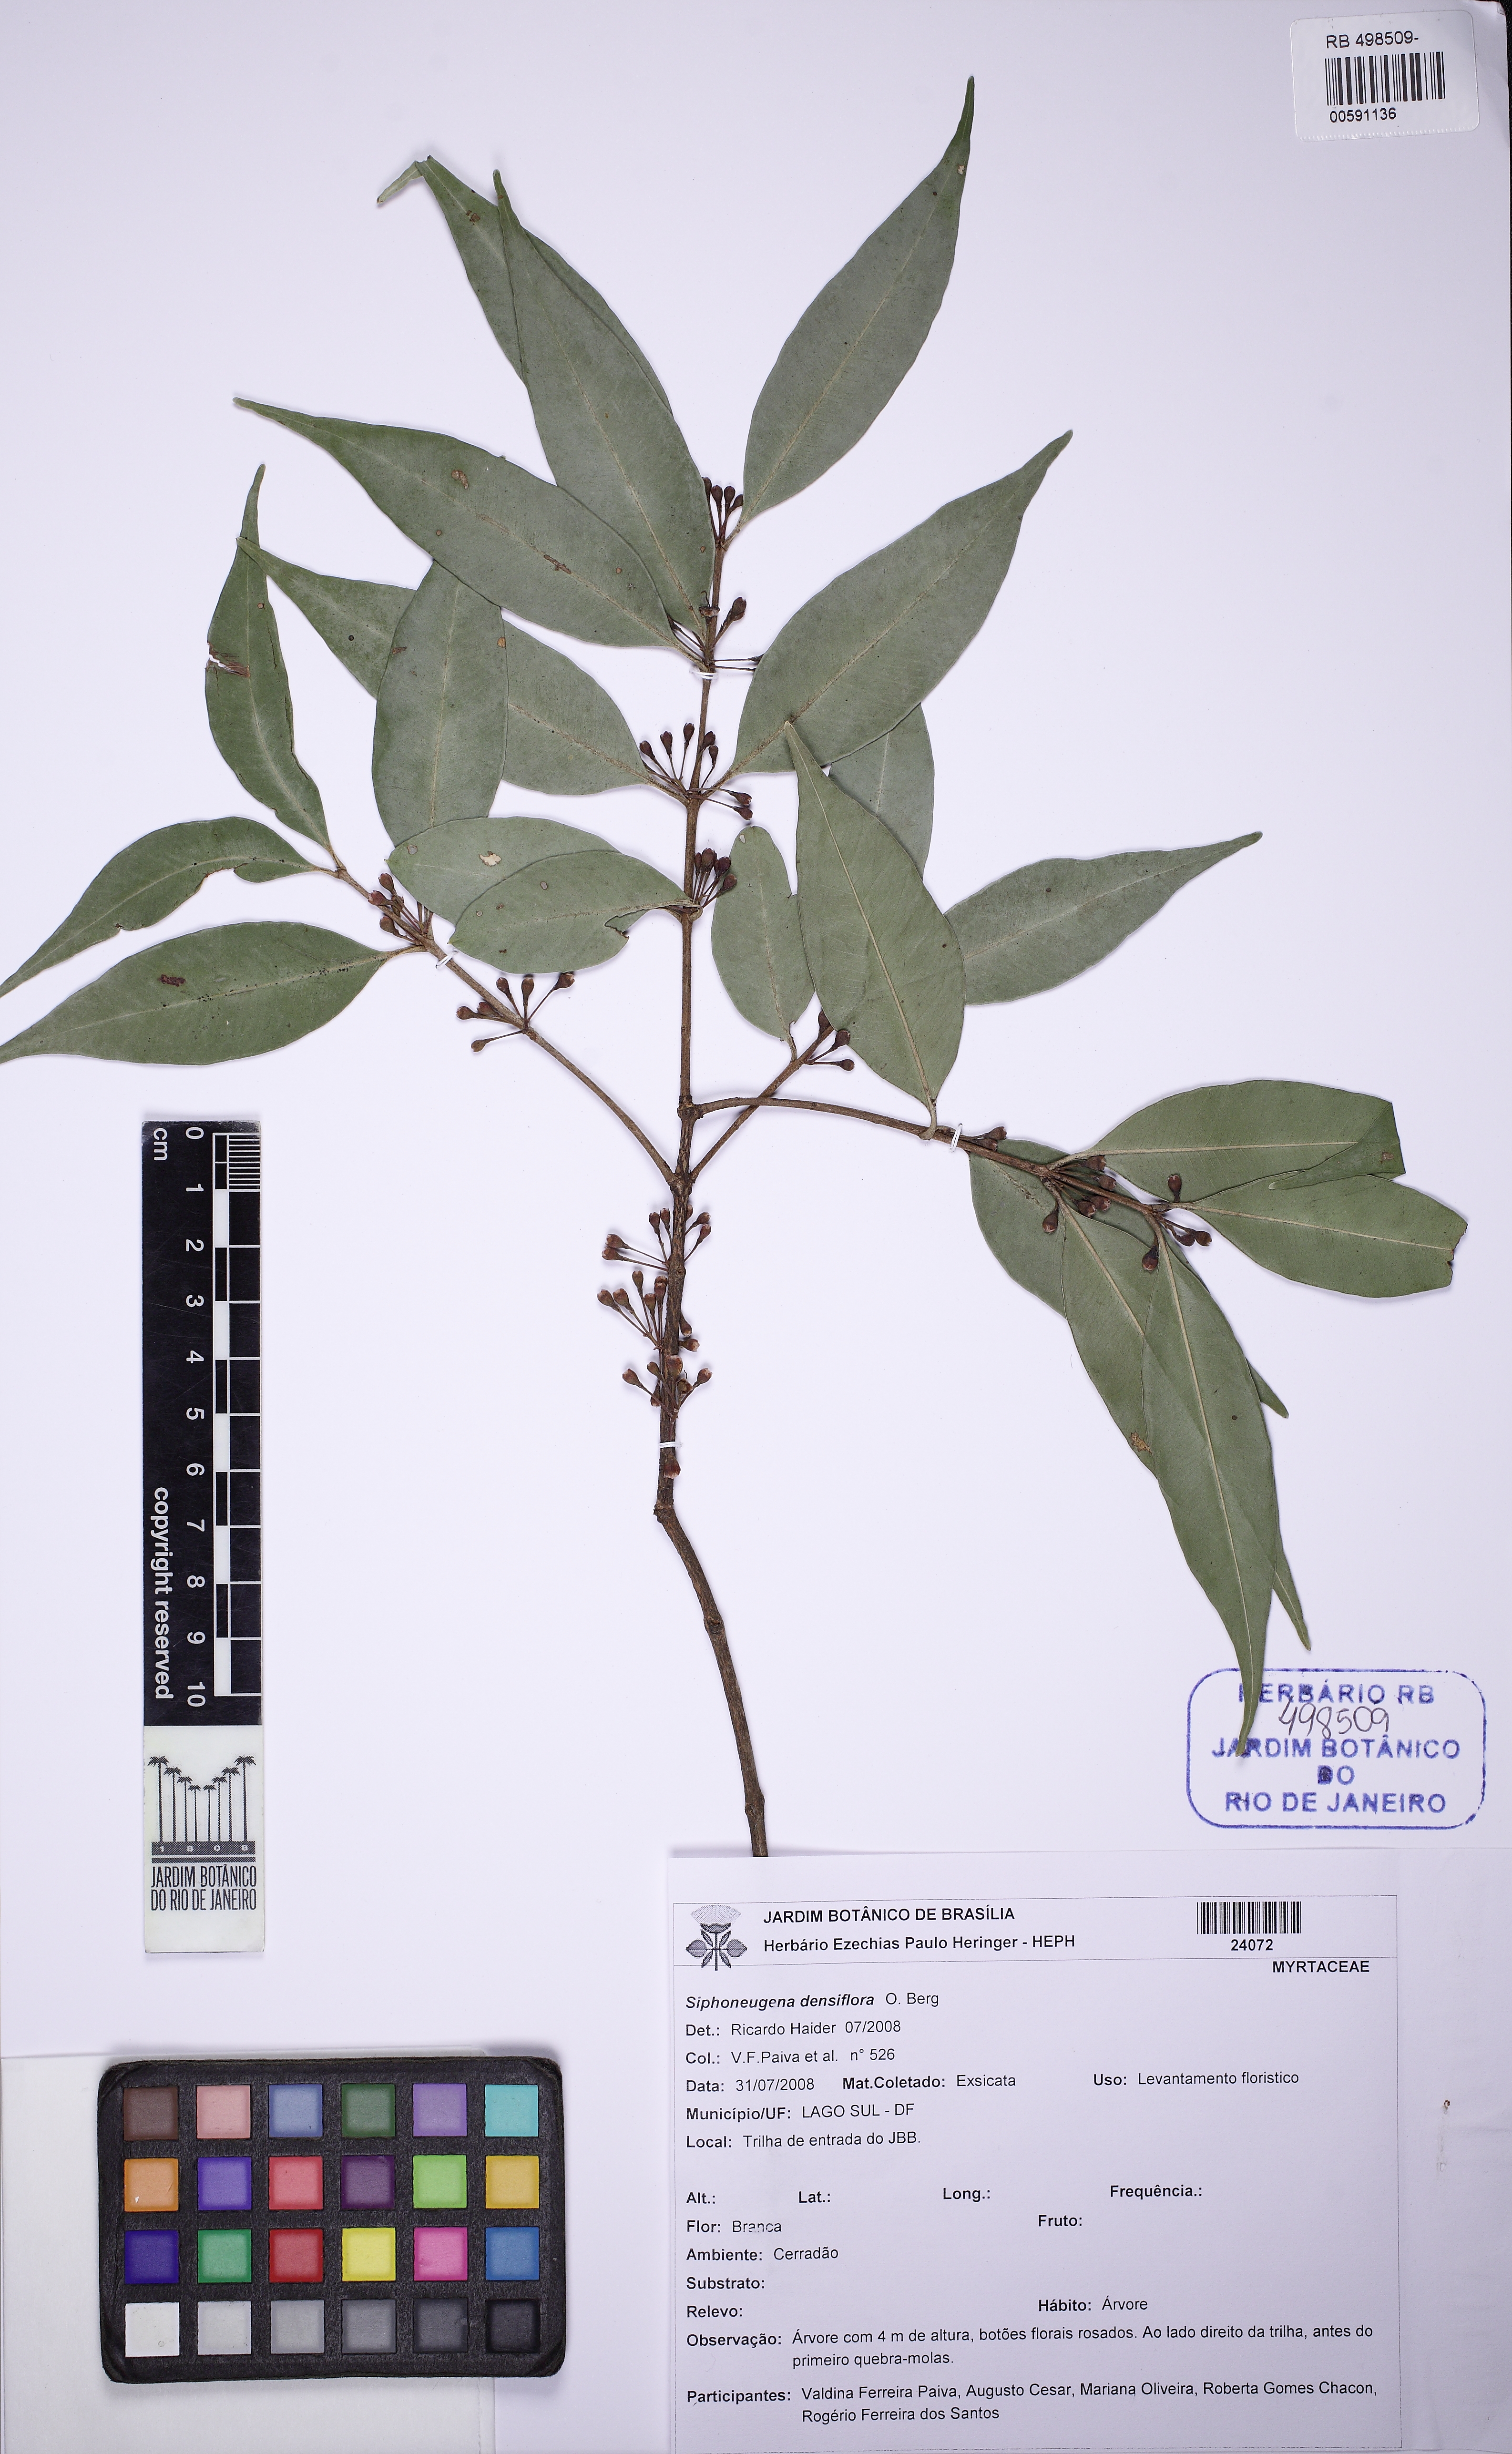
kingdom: Plantae
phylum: Tracheophyta
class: Magnoliopsida
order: Myrtales
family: Myrtaceae
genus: Siphoneugena
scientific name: Siphoneugena densiflora
